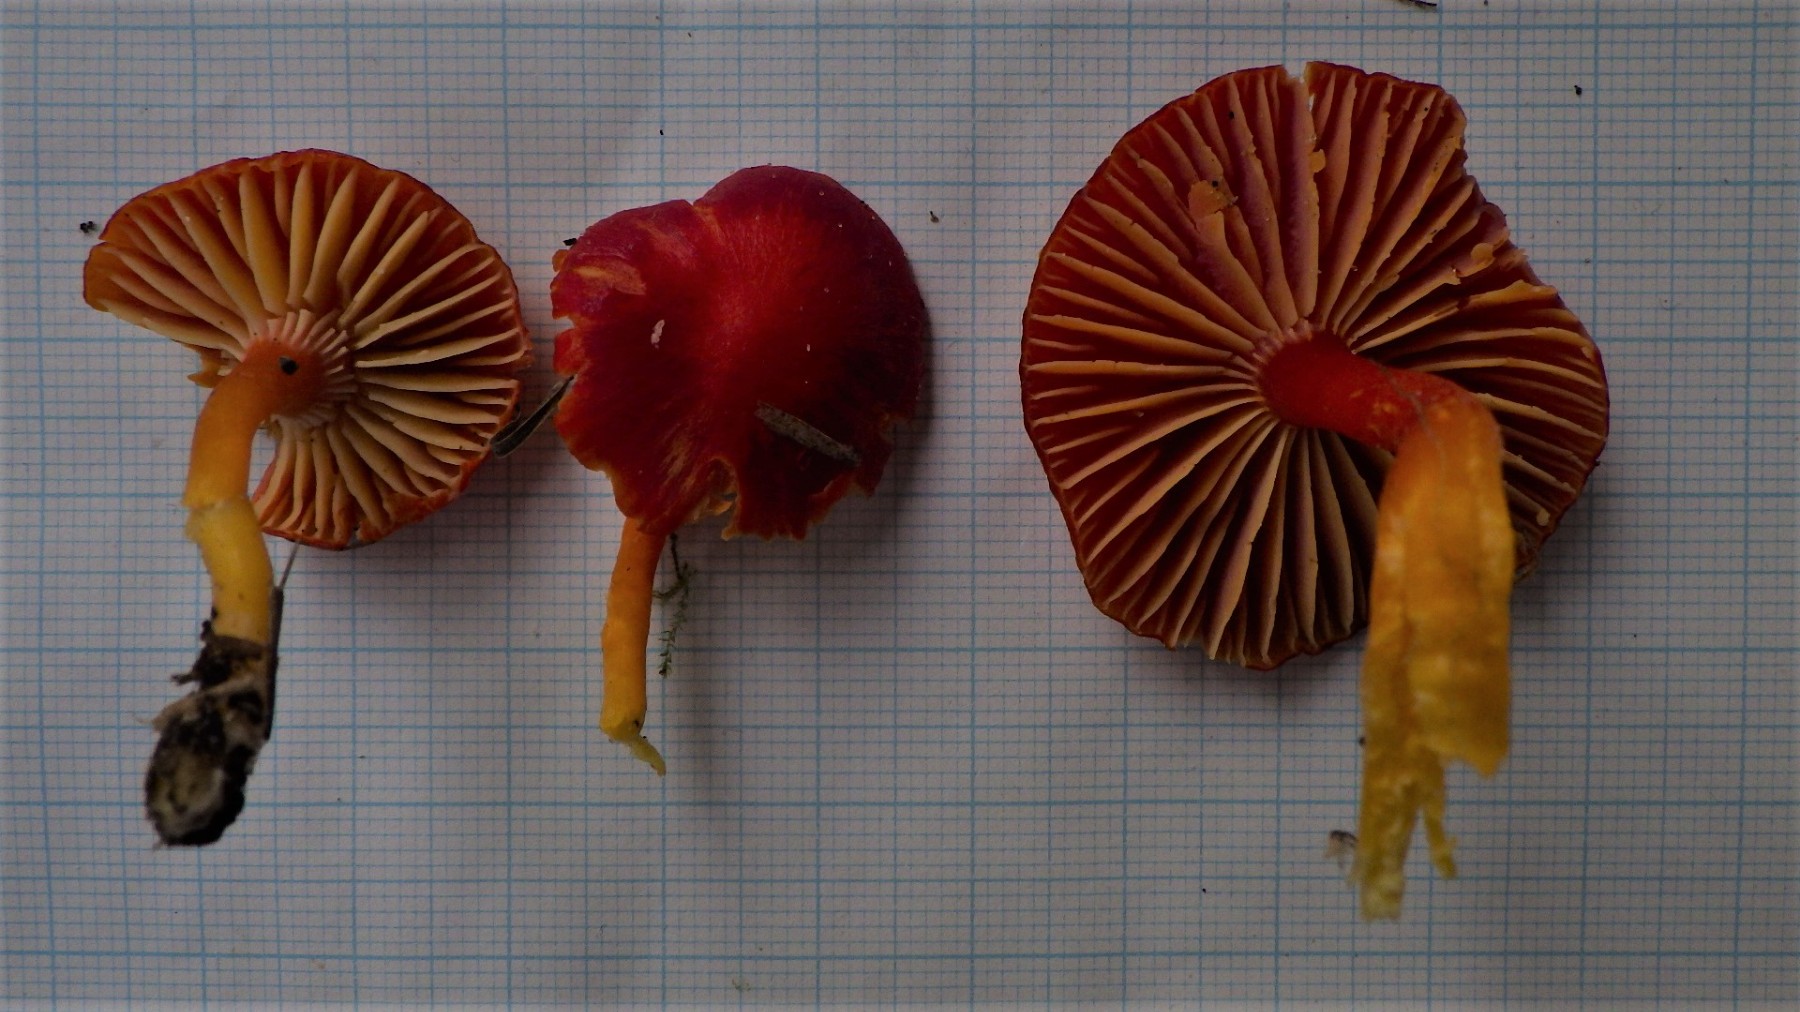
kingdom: Fungi
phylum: Basidiomycota
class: Agaricomycetes
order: Agaricales
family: Hygrophoraceae
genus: Hygrocybe
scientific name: Hygrocybe coccinea
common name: cinnober-vokshat
